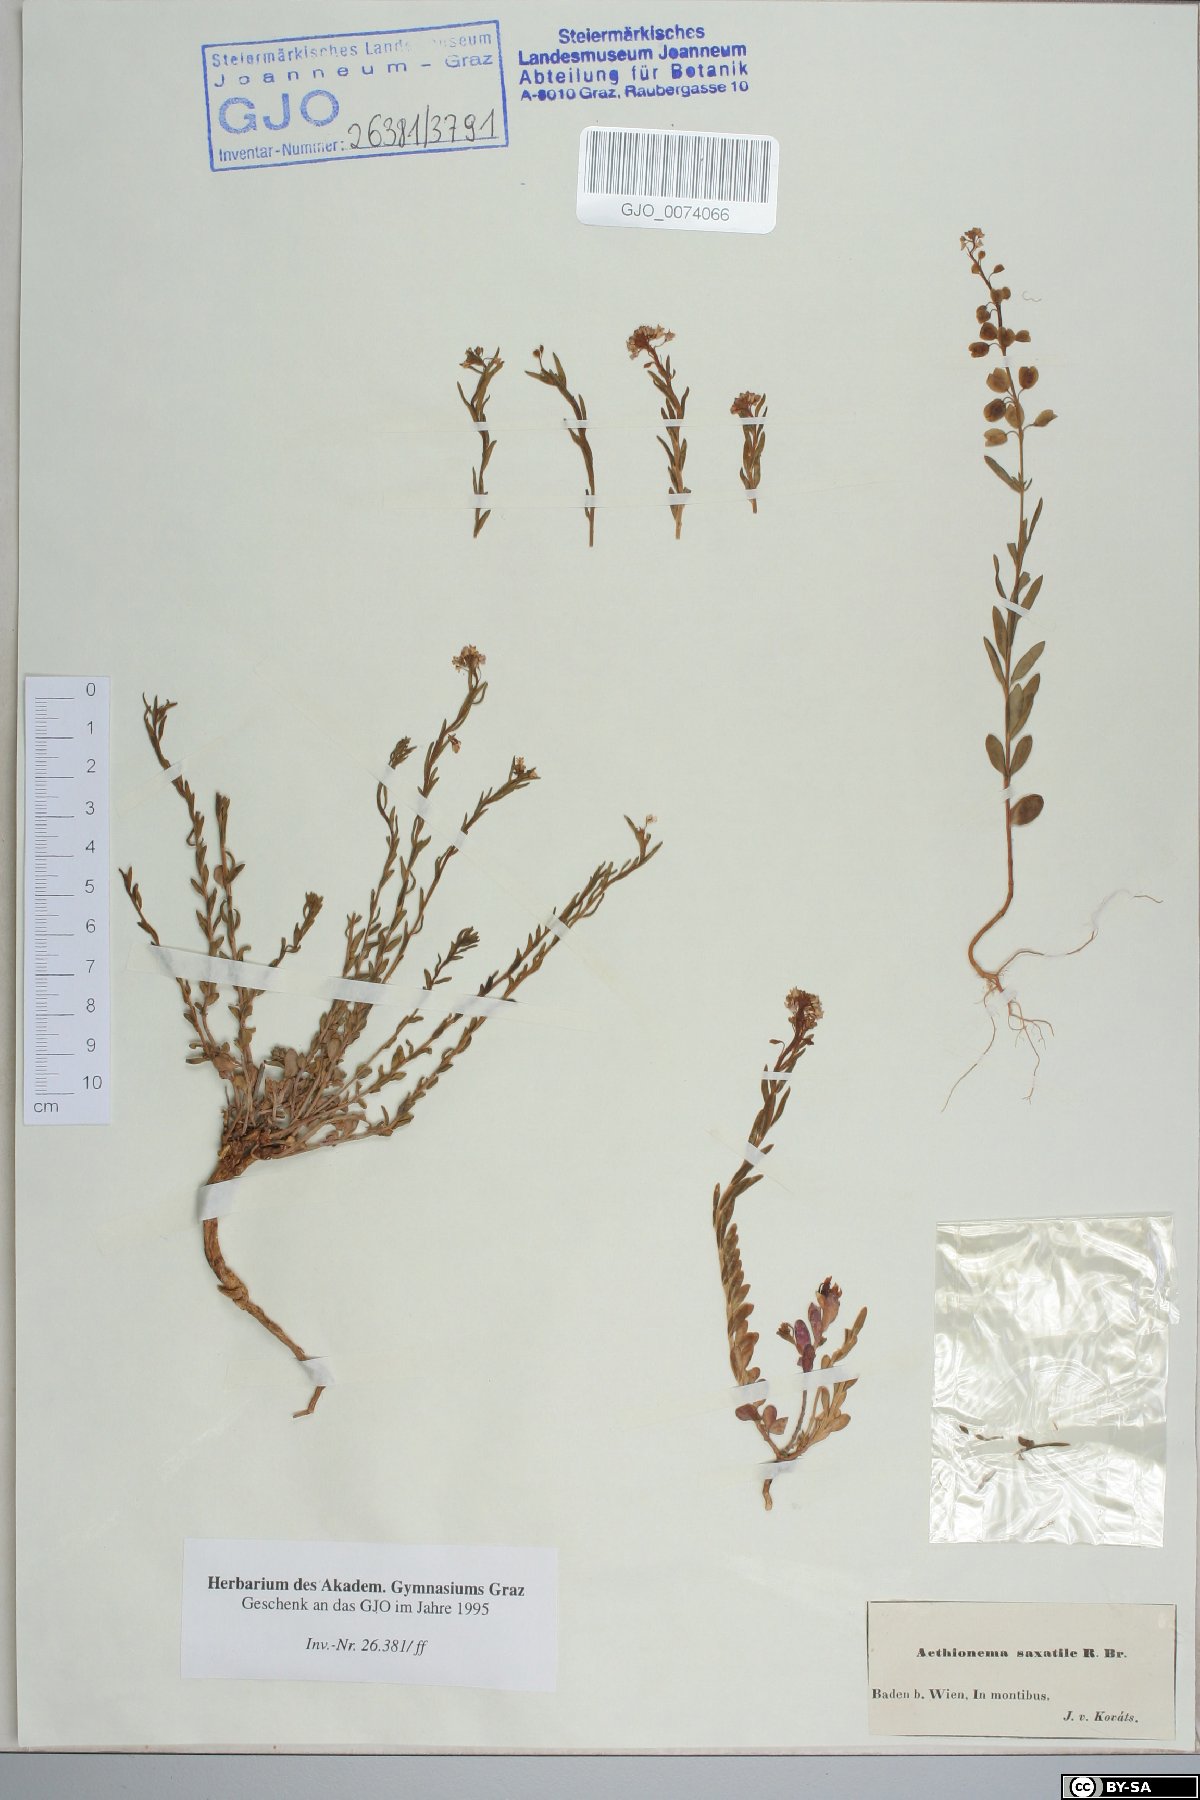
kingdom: Plantae
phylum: Tracheophyta
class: Magnoliopsida
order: Brassicales
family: Brassicaceae
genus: Aethionema
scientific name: Aethionema saxatile
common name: Burnt candytuft
